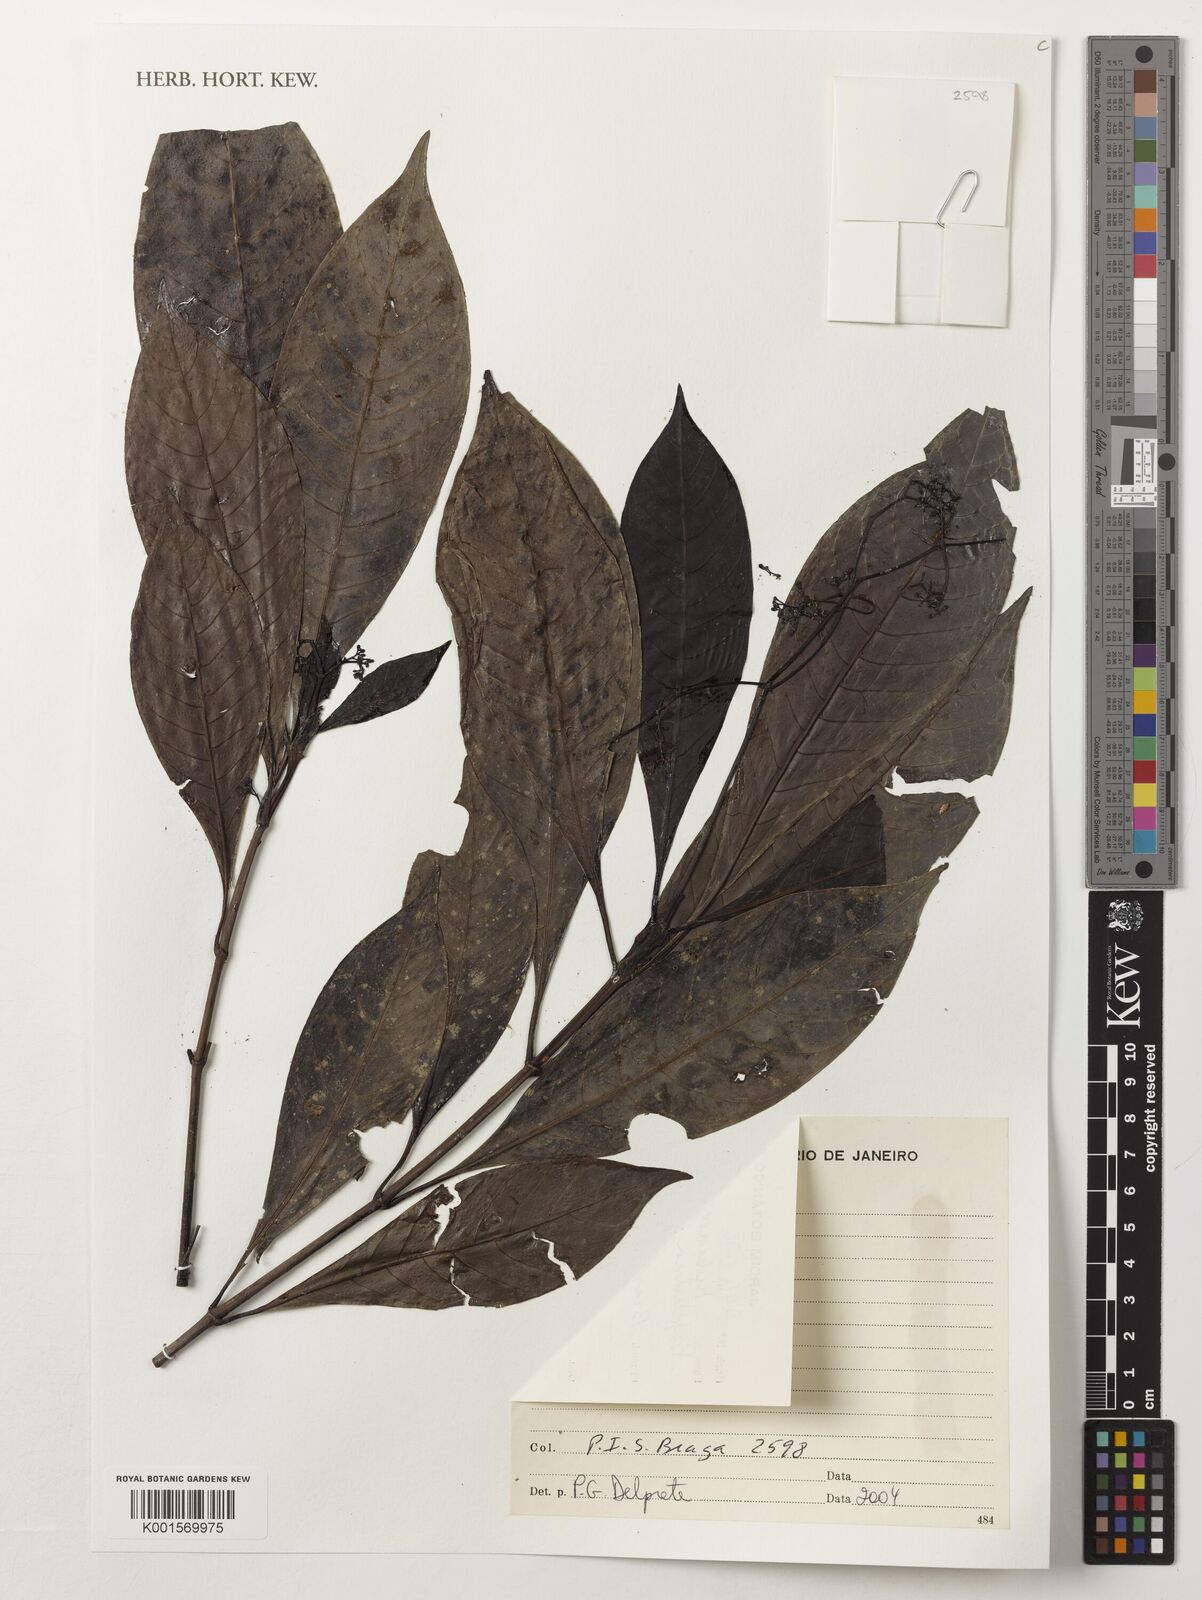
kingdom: Plantae
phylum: Tracheophyta
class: Magnoliopsida
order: Gentianales
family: Rubiaceae
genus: Psychotria
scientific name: Psychotria
